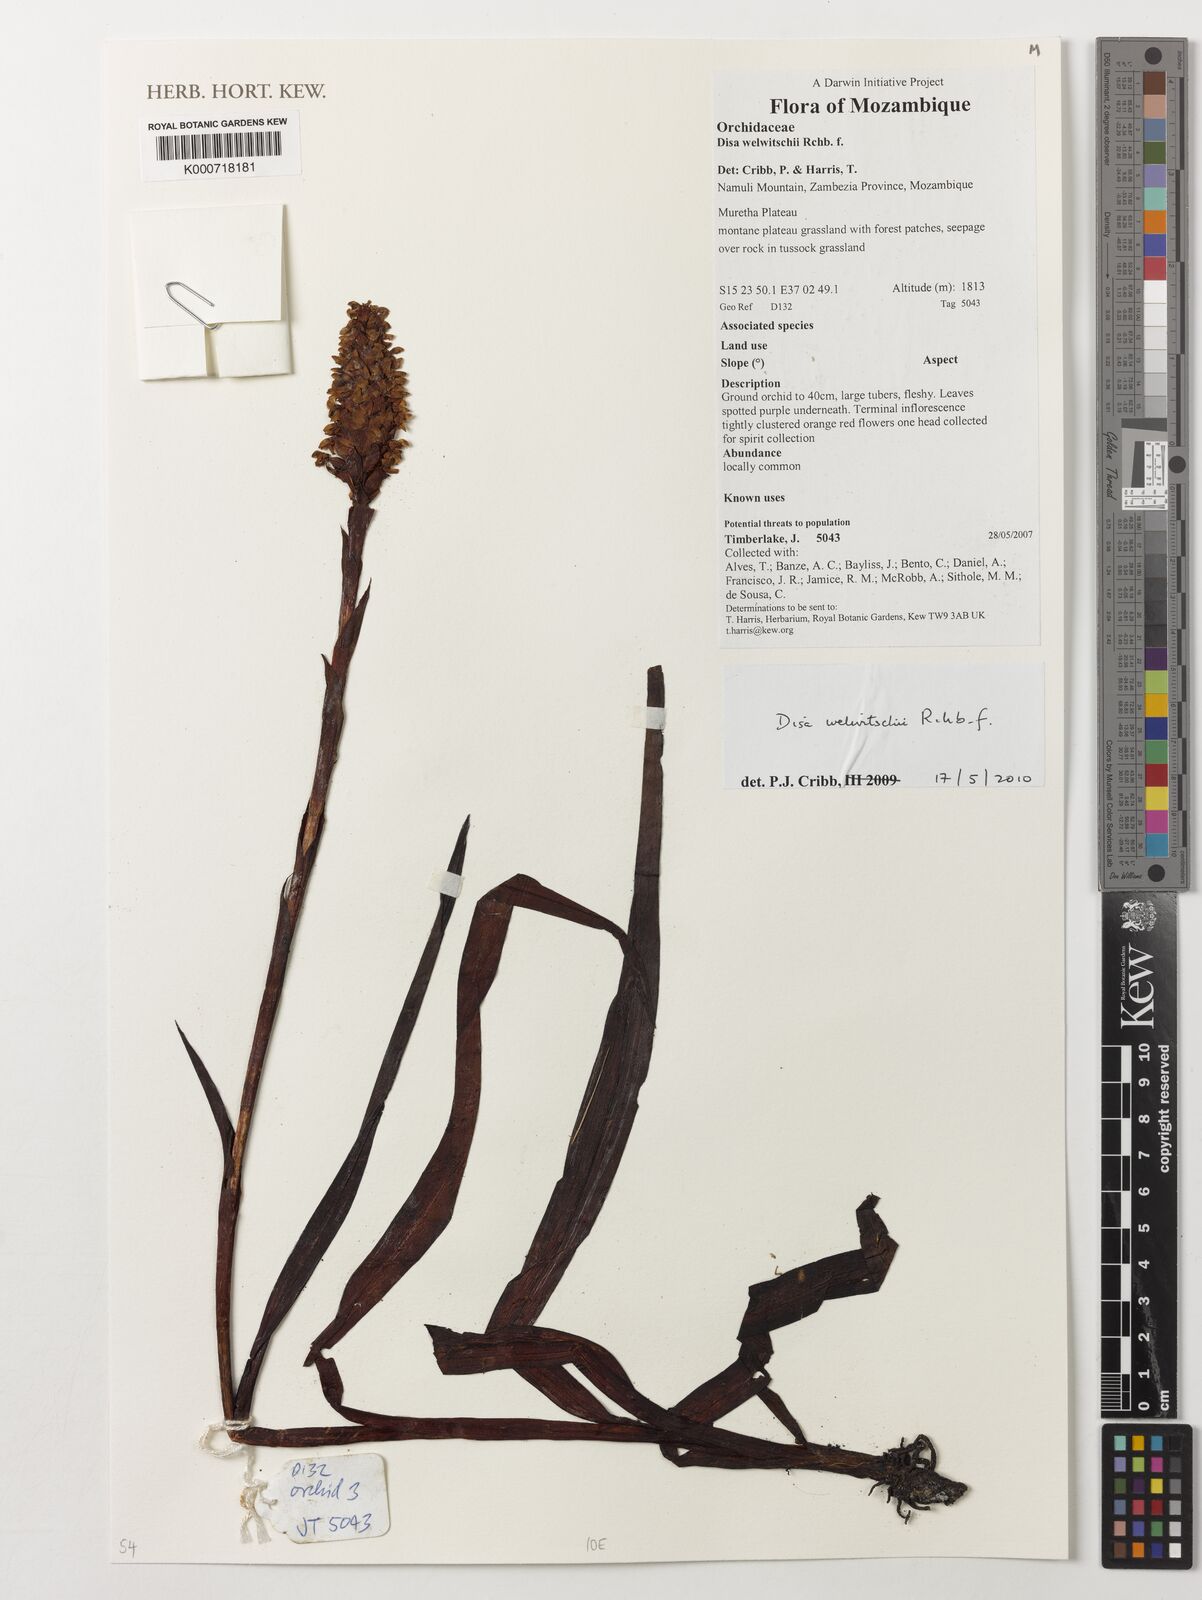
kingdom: Plantae
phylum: Tracheophyta
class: Liliopsida
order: Asparagales
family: Orchidaceae
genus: Disa
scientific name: Disa welwitschii
